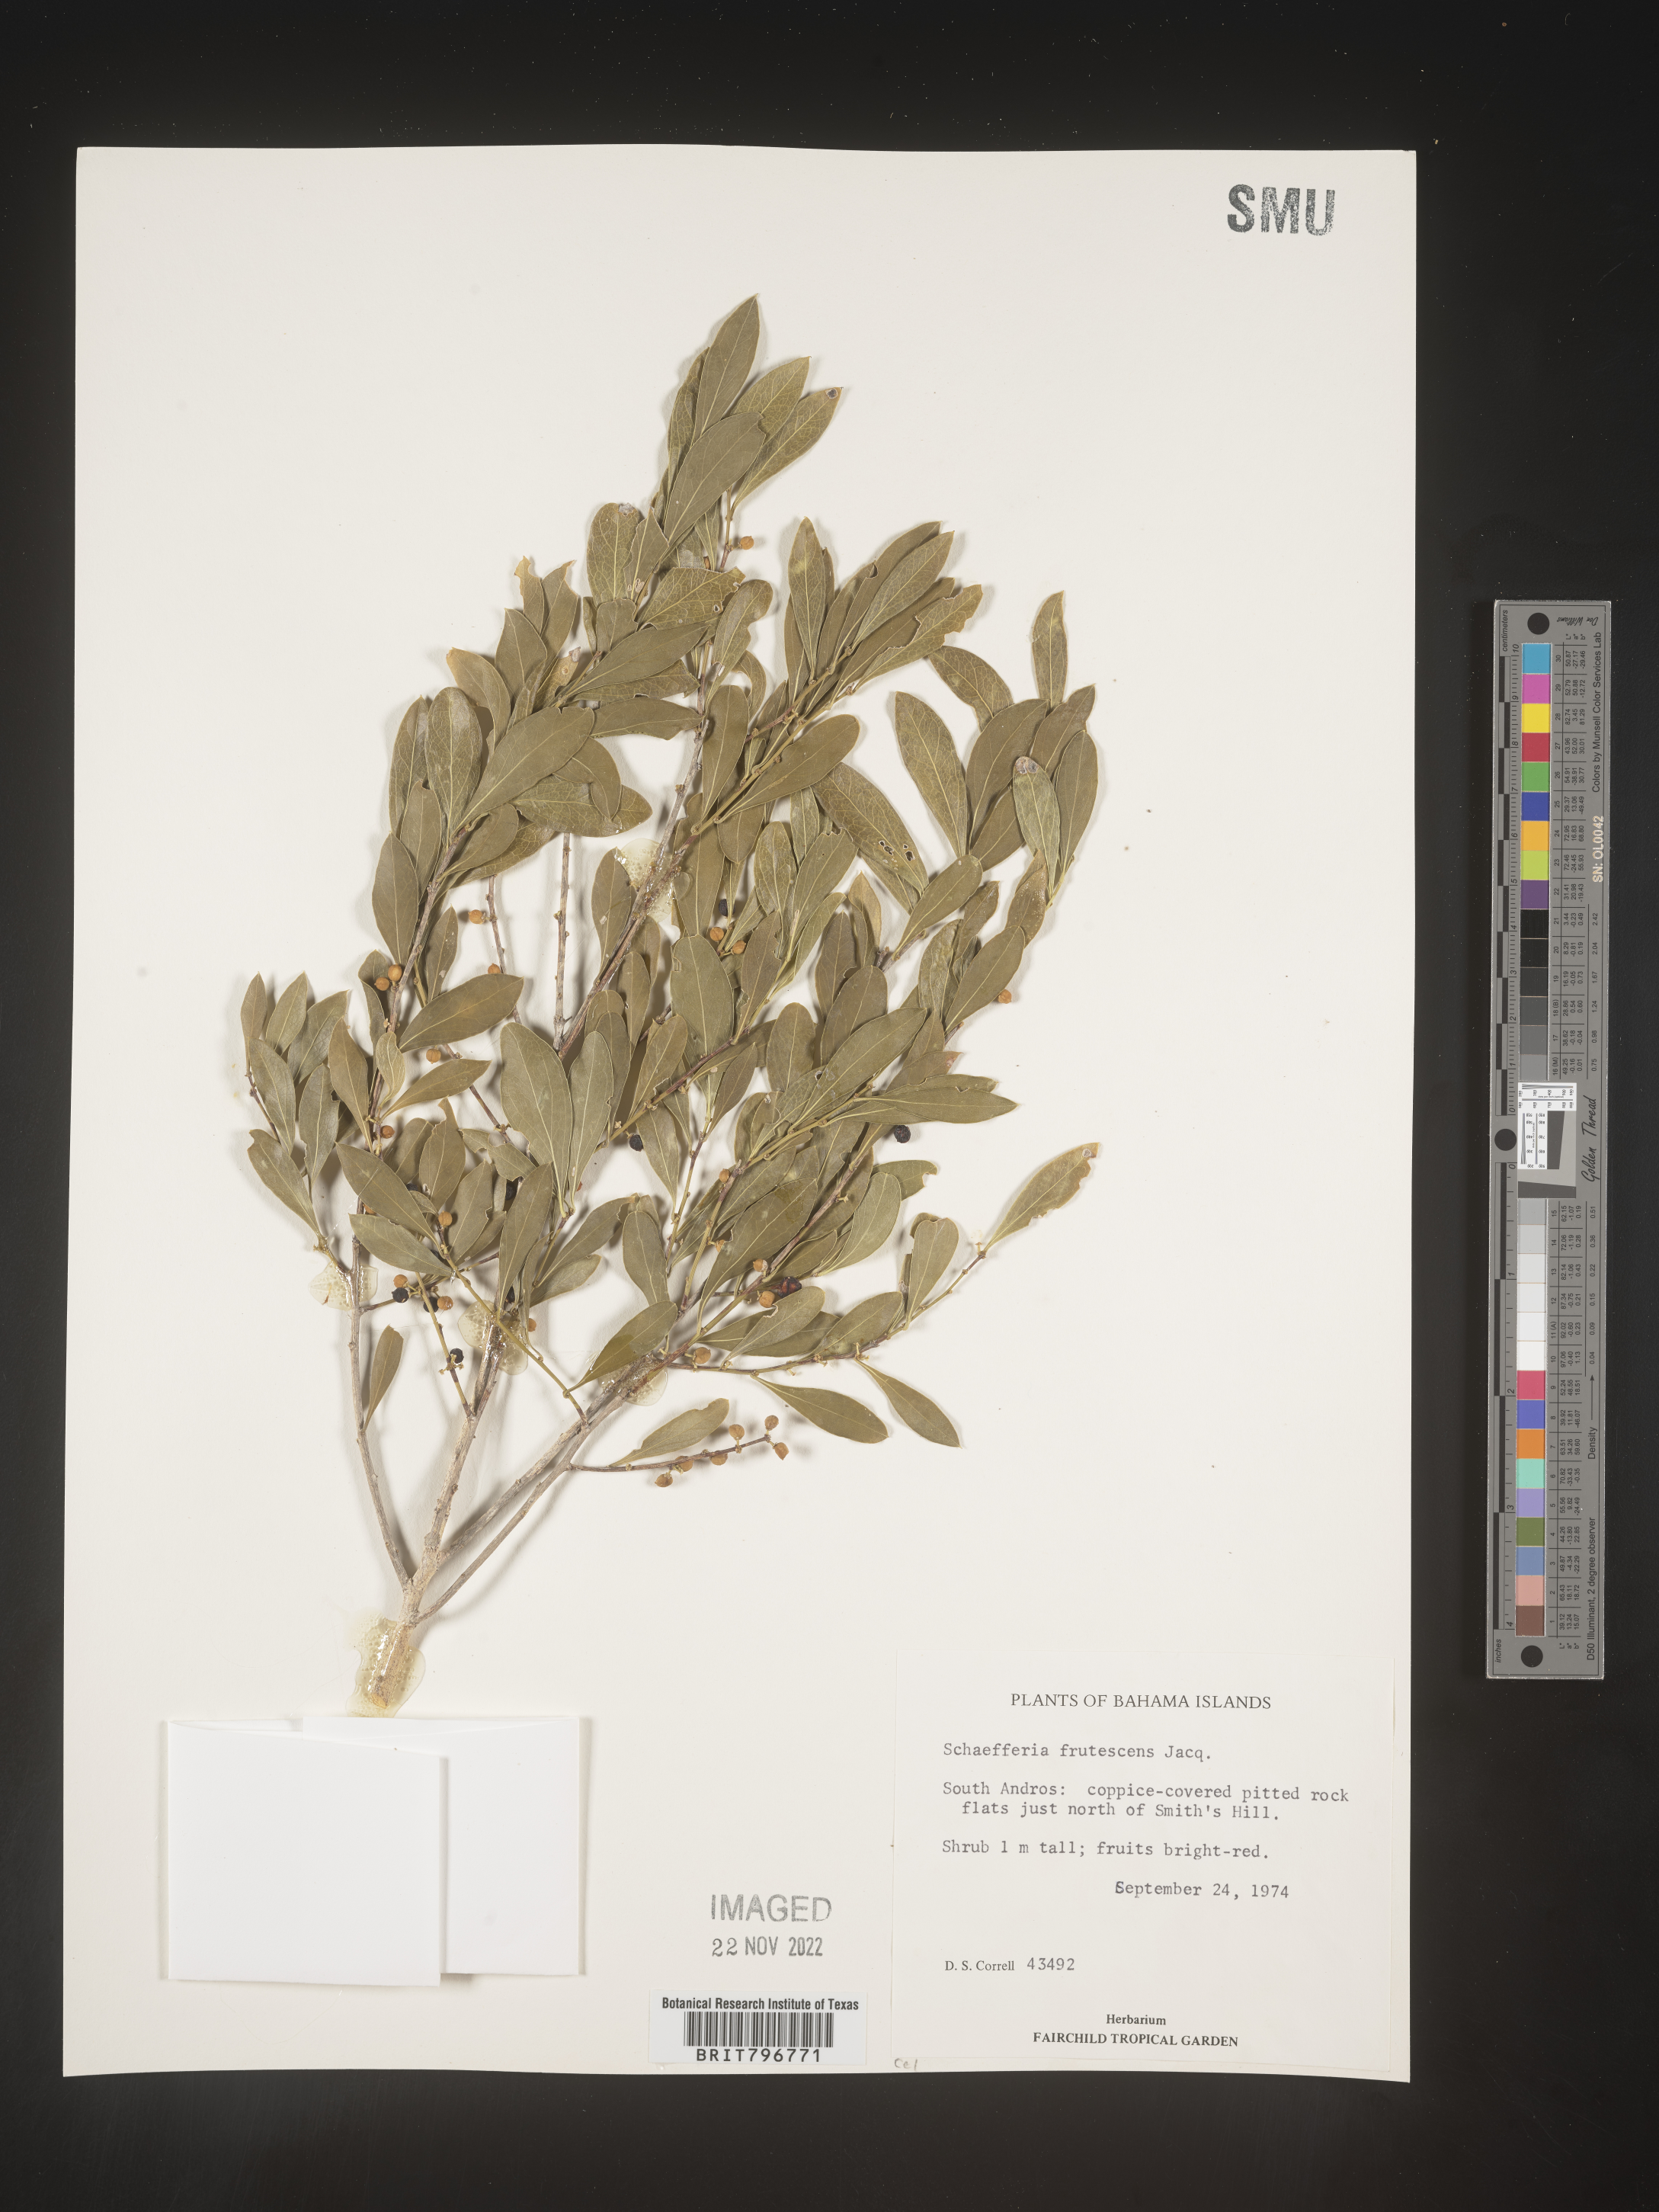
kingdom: Plantae
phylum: Tracheophyta
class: Magnoliopsida
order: Celastrales
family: Celastraceae
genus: Schaefferia
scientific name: Schaefferia
